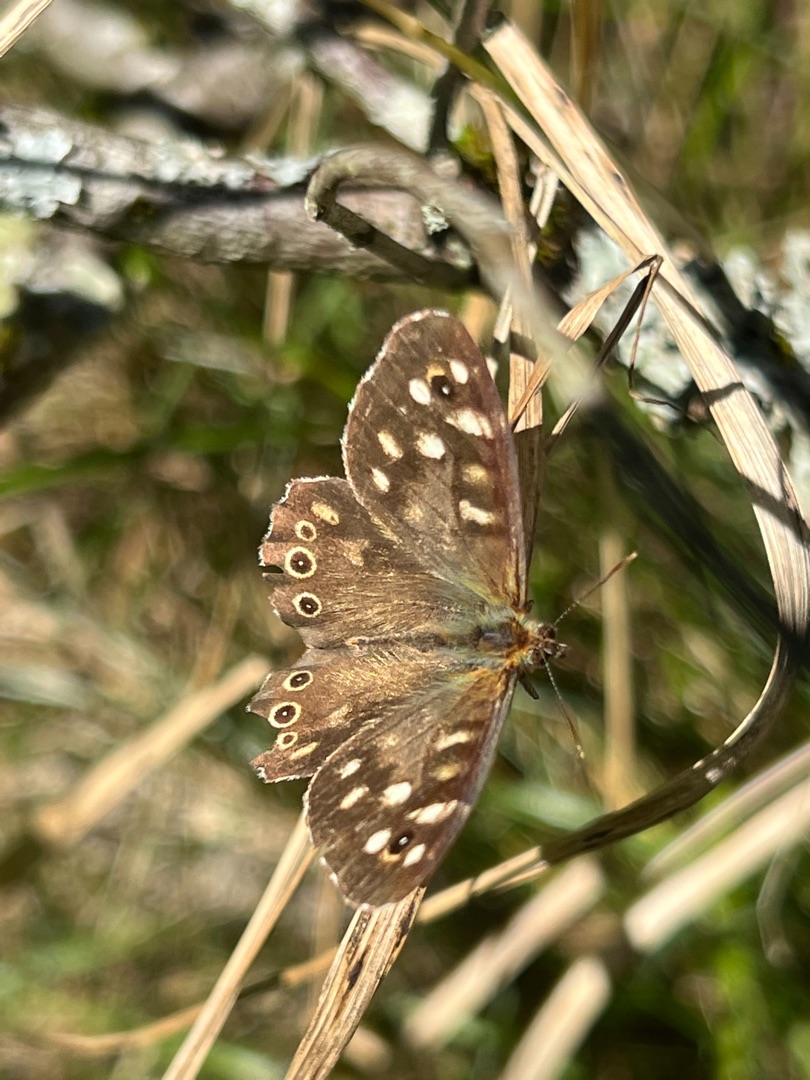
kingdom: Animalia
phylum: Arthropoda
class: Insecta
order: Lepidoptera
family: Nymphalidae
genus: Pararge
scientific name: Pararge aegeria
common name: Skovrandøje
